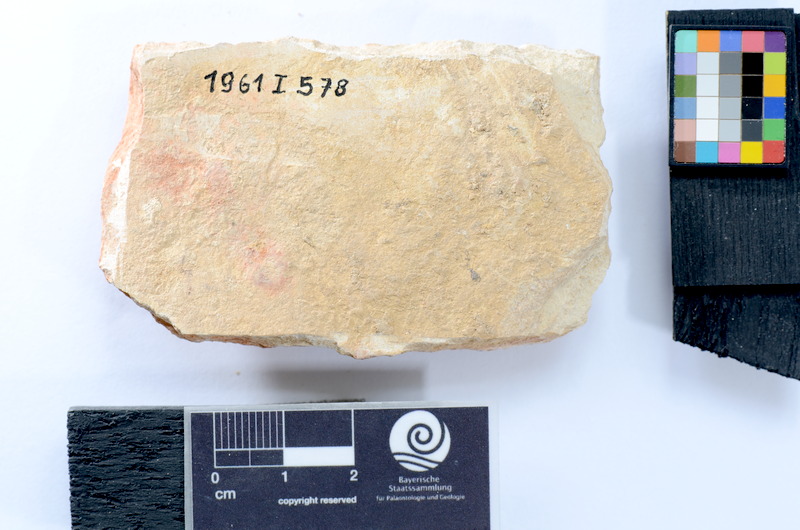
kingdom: Animalia
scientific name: Animalia
